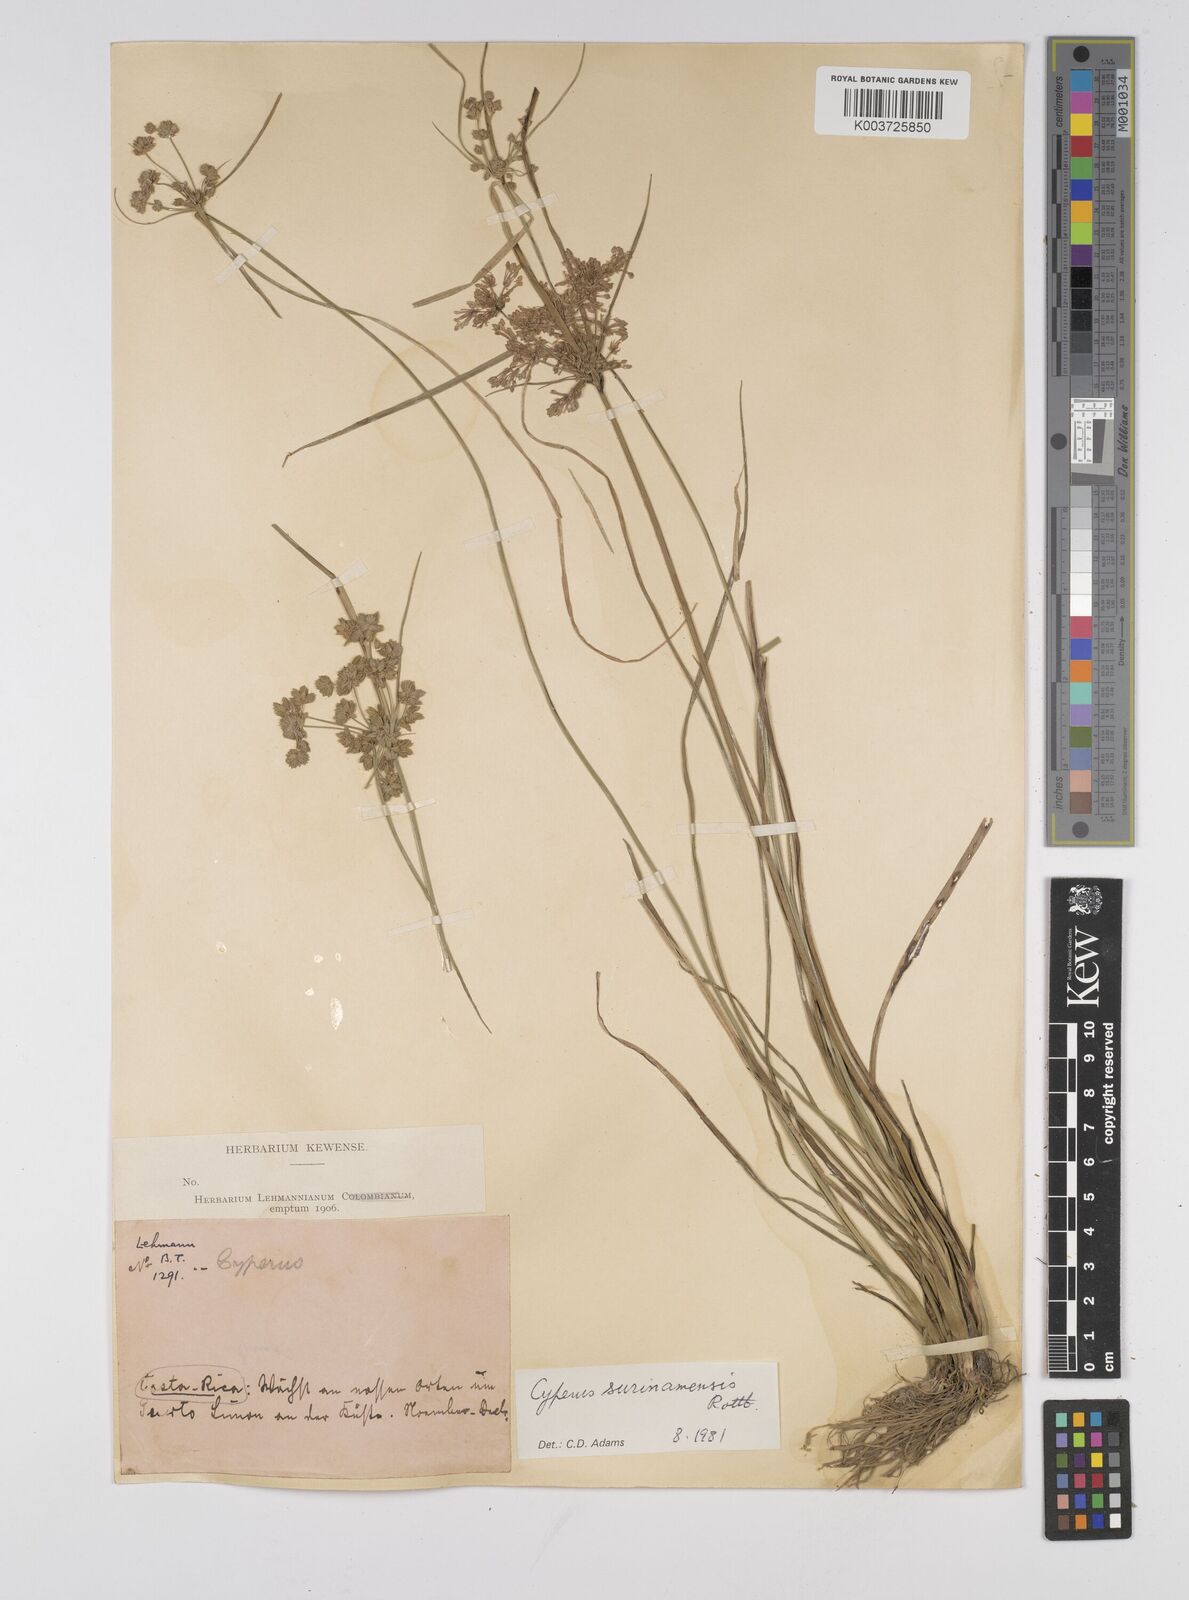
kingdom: Plantae
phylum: Tracheophyta
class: Liliopsida
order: Poales
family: Cyperaceae
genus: Cyperus
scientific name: Cyperus surinamensis
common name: Tropical flat sedge
